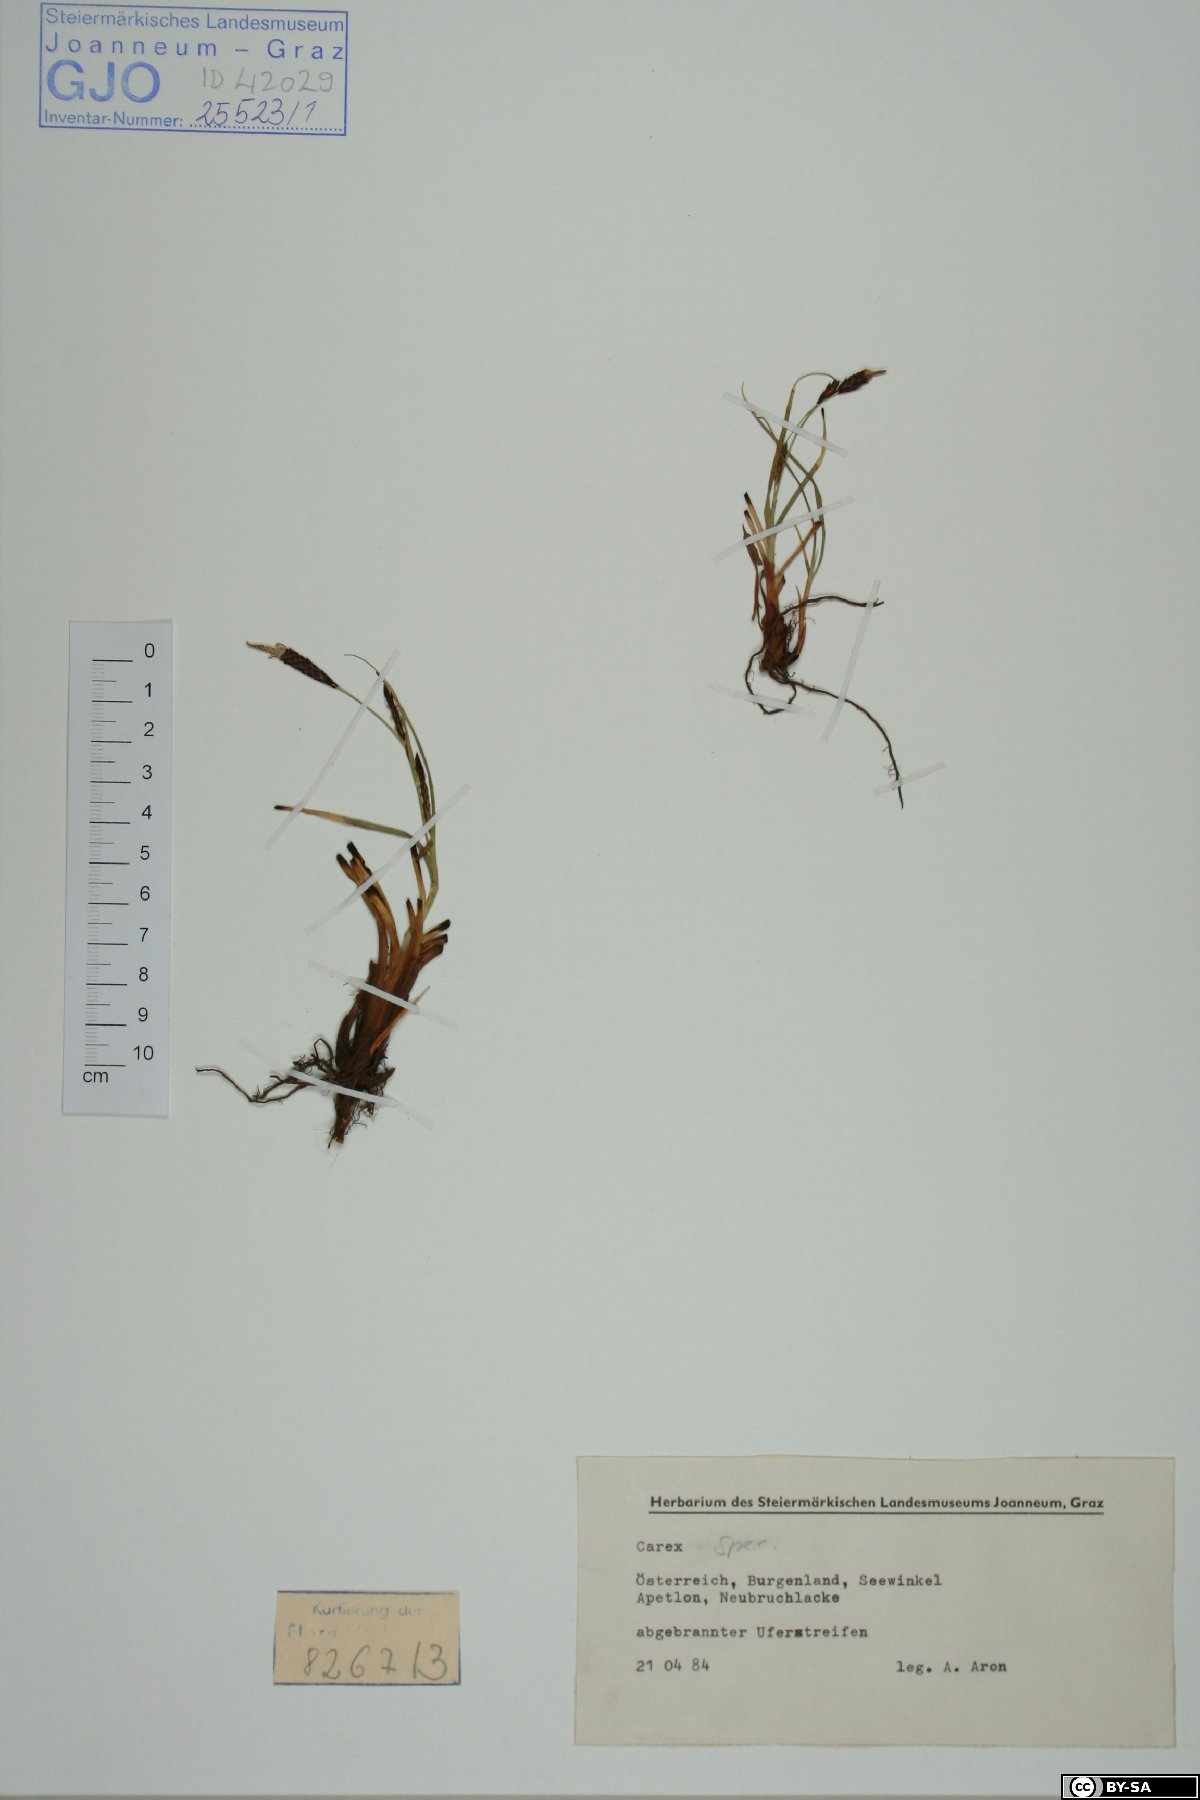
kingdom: Plantae
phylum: Tracheophyta
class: Liliopsida
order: Poales
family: Cyperaceae
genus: Carex
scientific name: Carex
